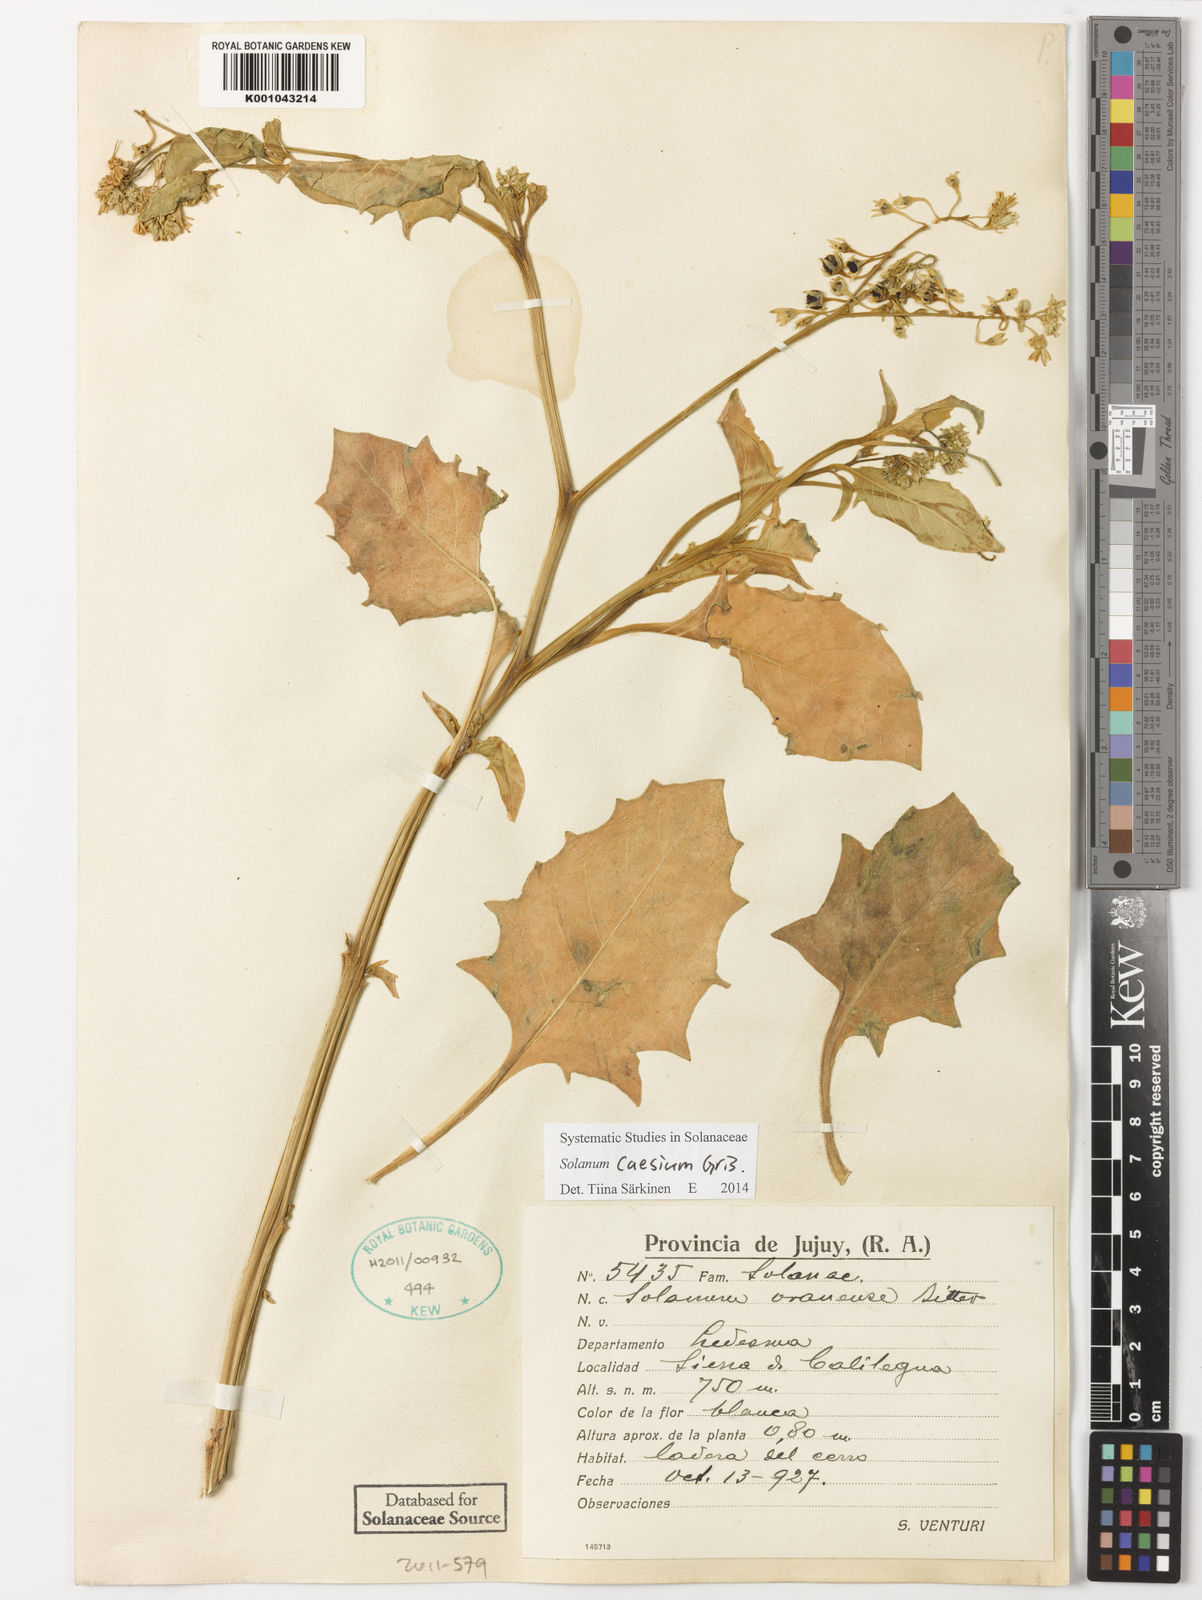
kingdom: Plantae
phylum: Tracheophyta
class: Magnoliopsida
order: Solanales
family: Solanaceae
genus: Solanum
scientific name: Solanum caesium
